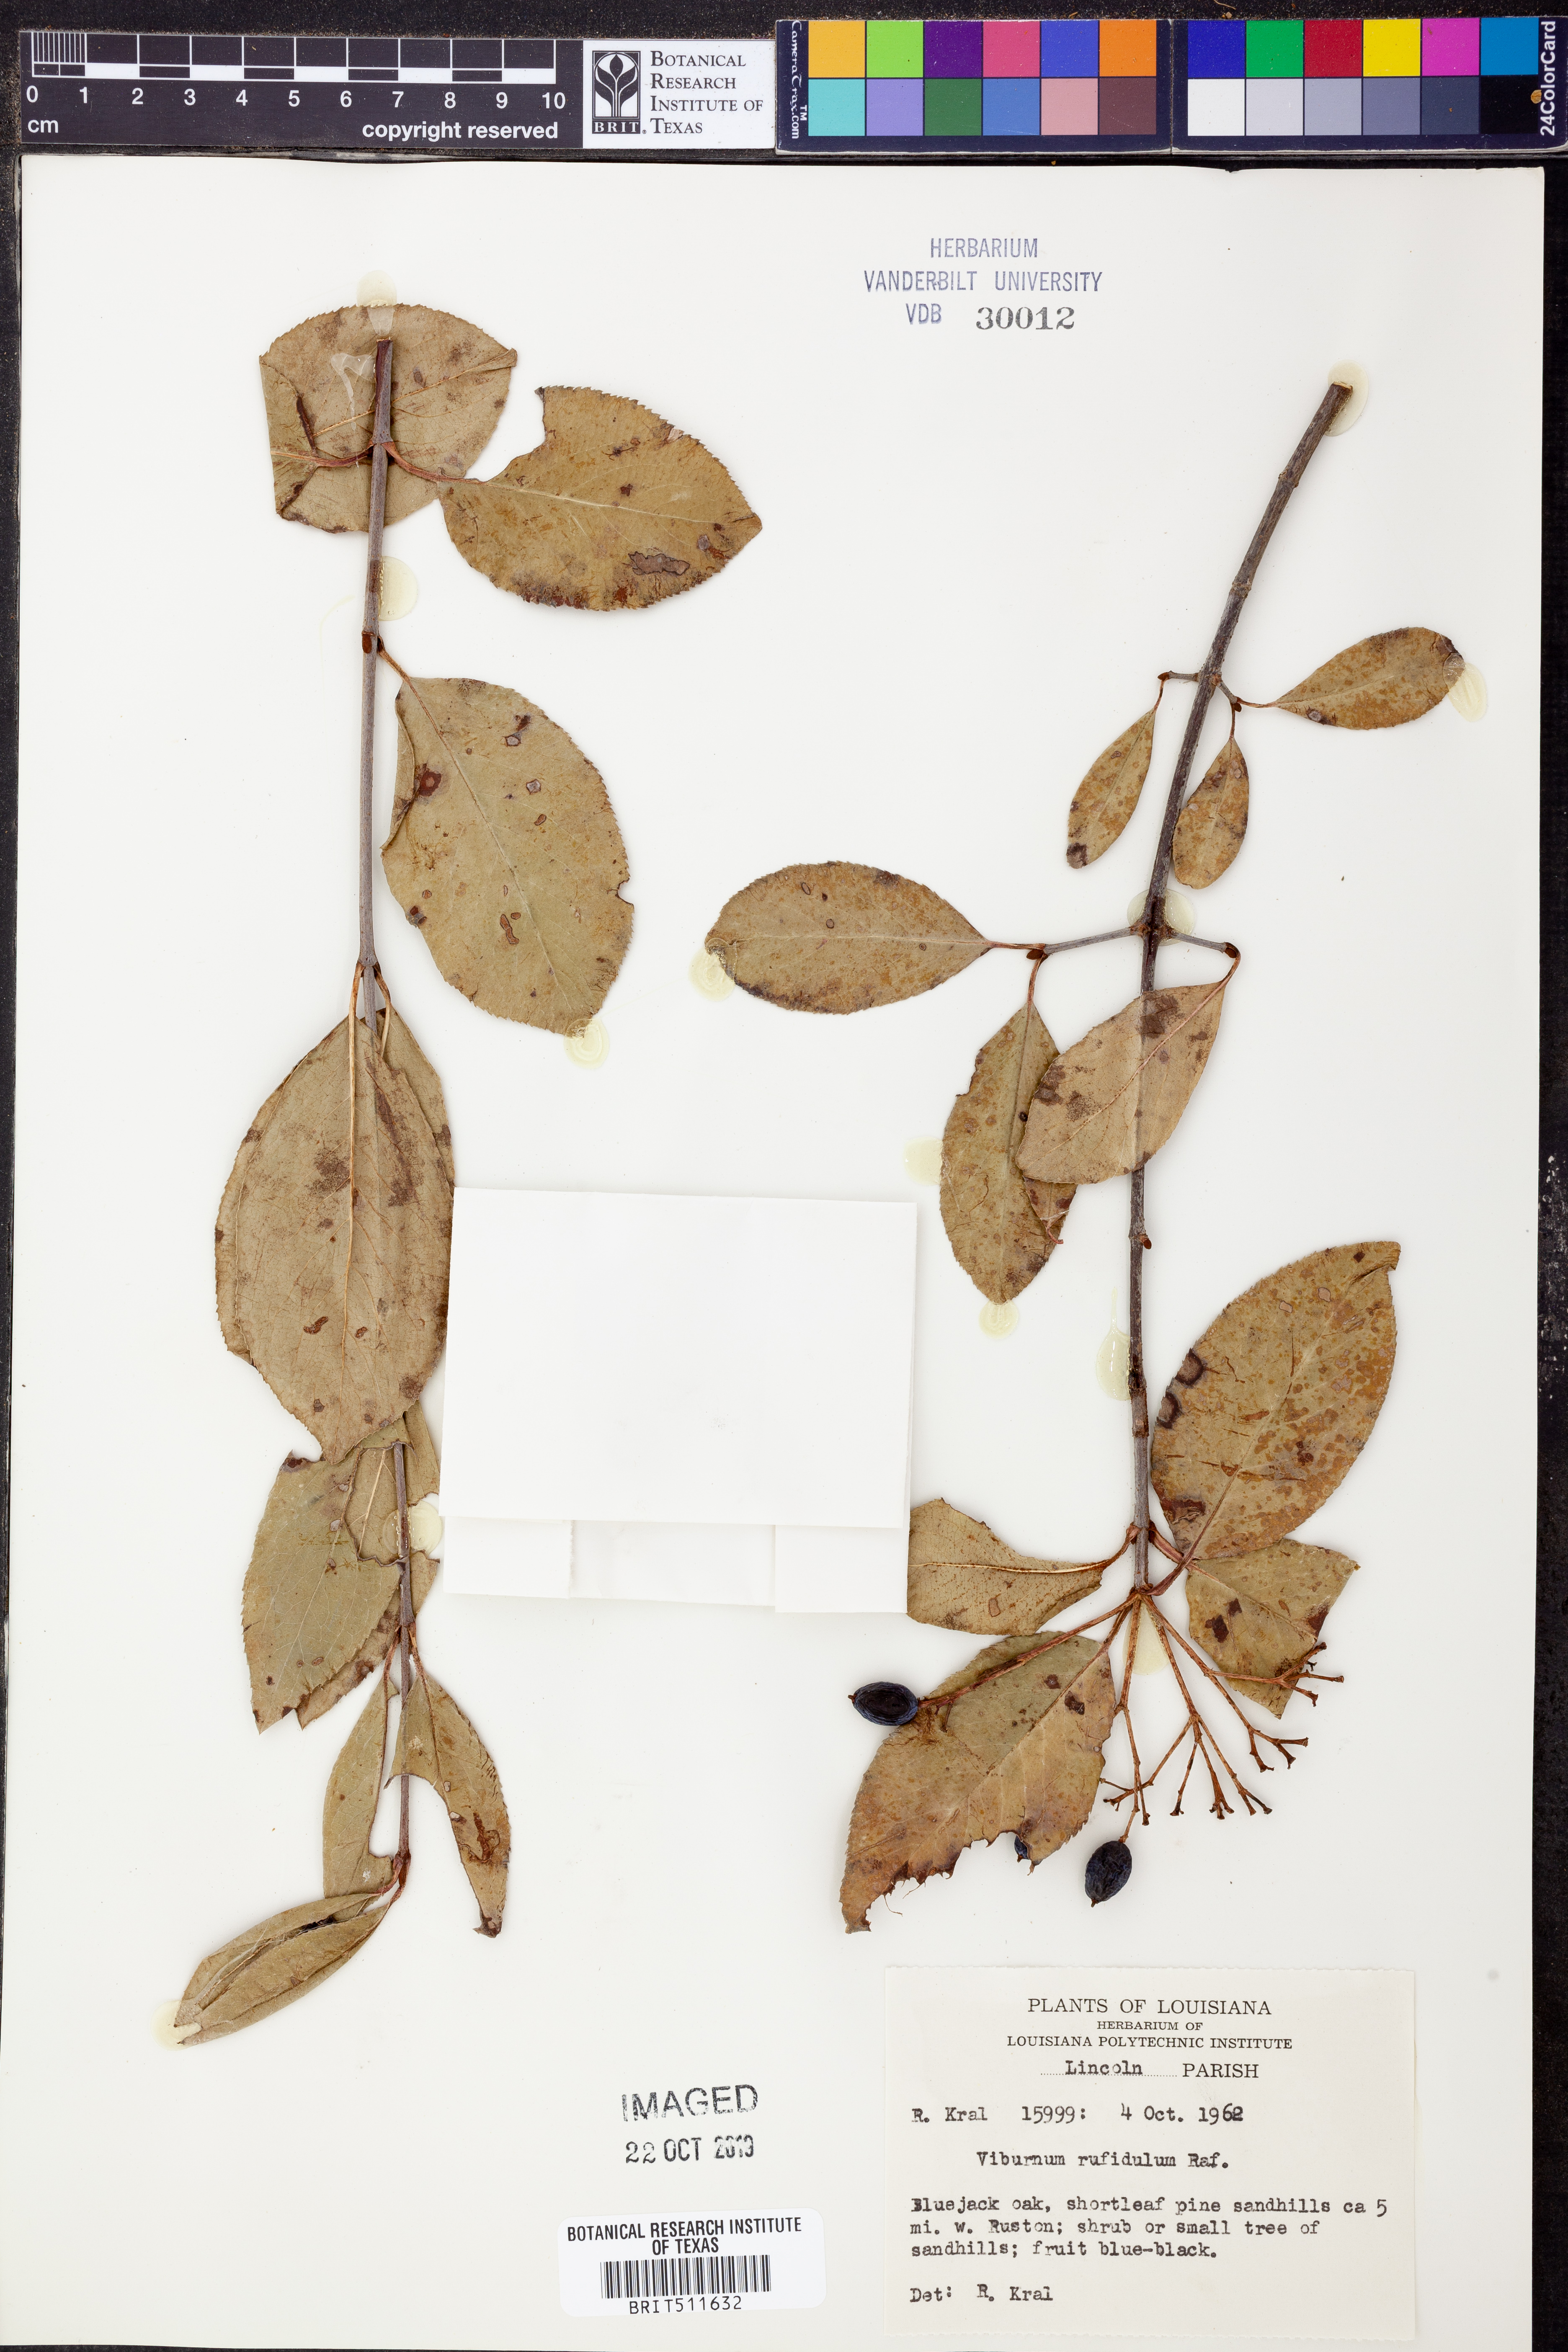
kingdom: Plantae
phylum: Tracheophyta
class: Magnoliopsida
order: Dipsacales
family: Viburnaceae
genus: Viburnum
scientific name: Viburnum rufidulum
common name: Blue haw
